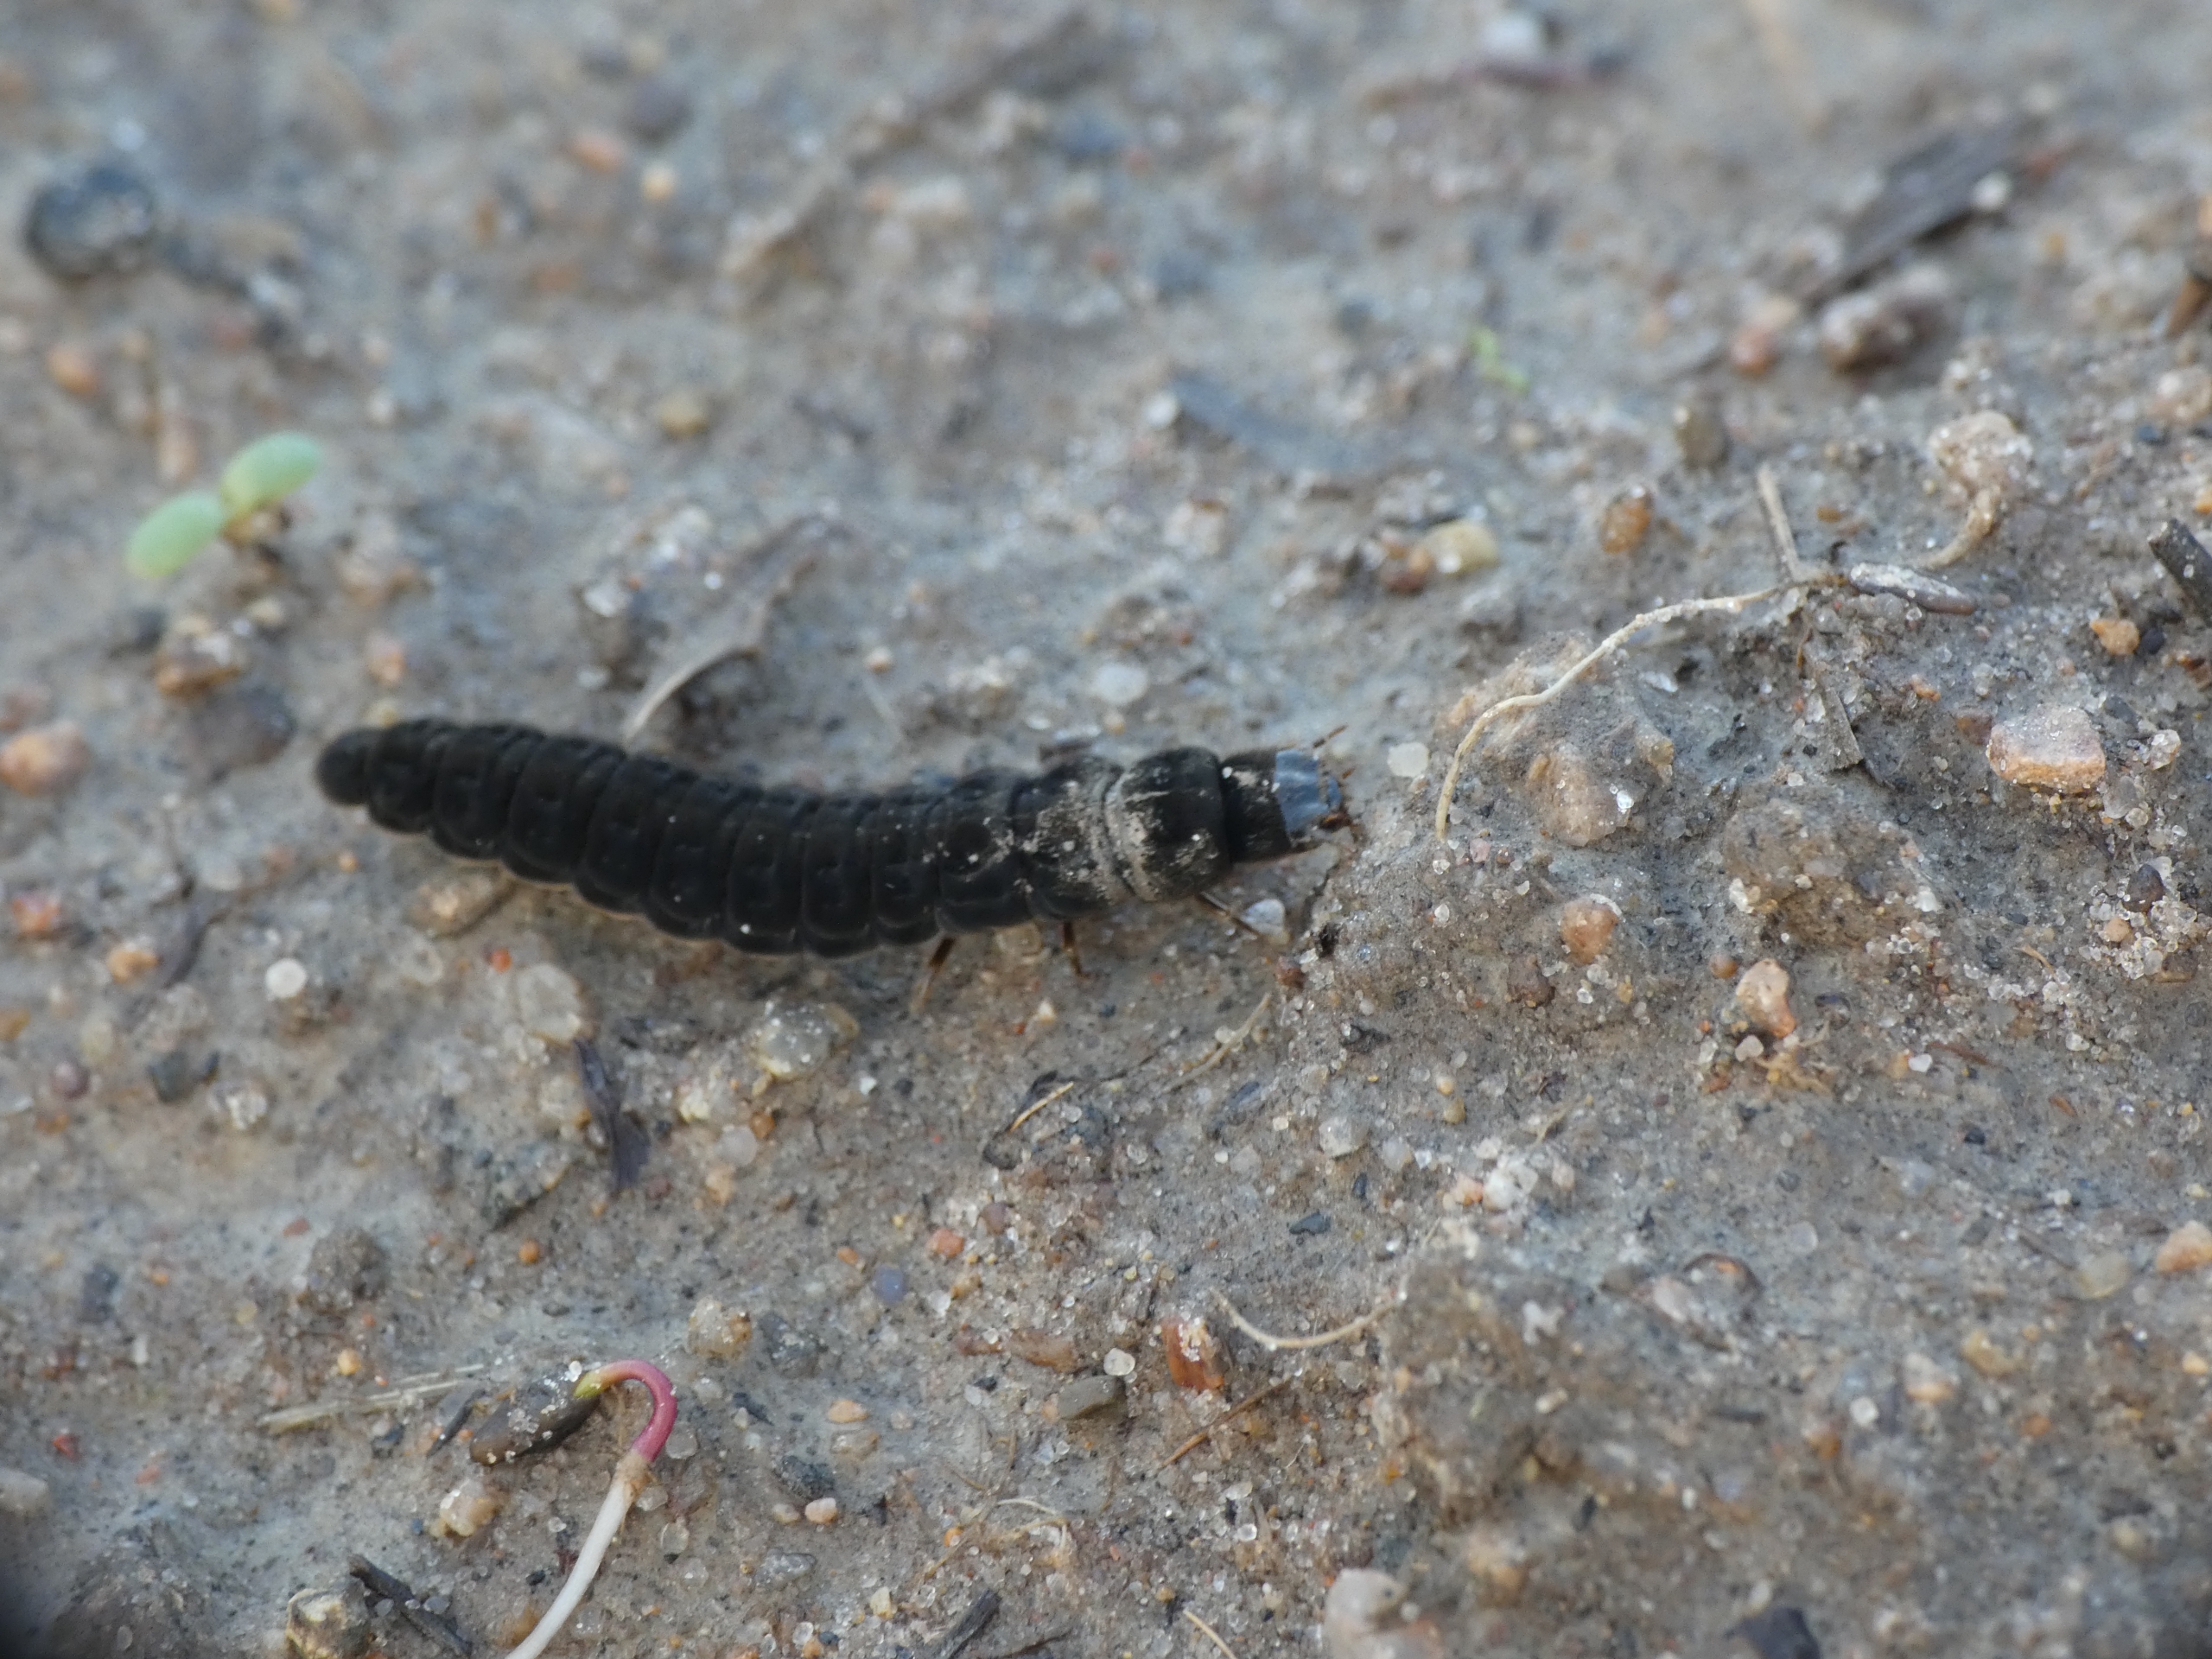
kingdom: Animalia
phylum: Arthropoda
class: Insecta
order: Coleoptera
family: Cantharidae
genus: Cantharis
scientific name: Cantharis
